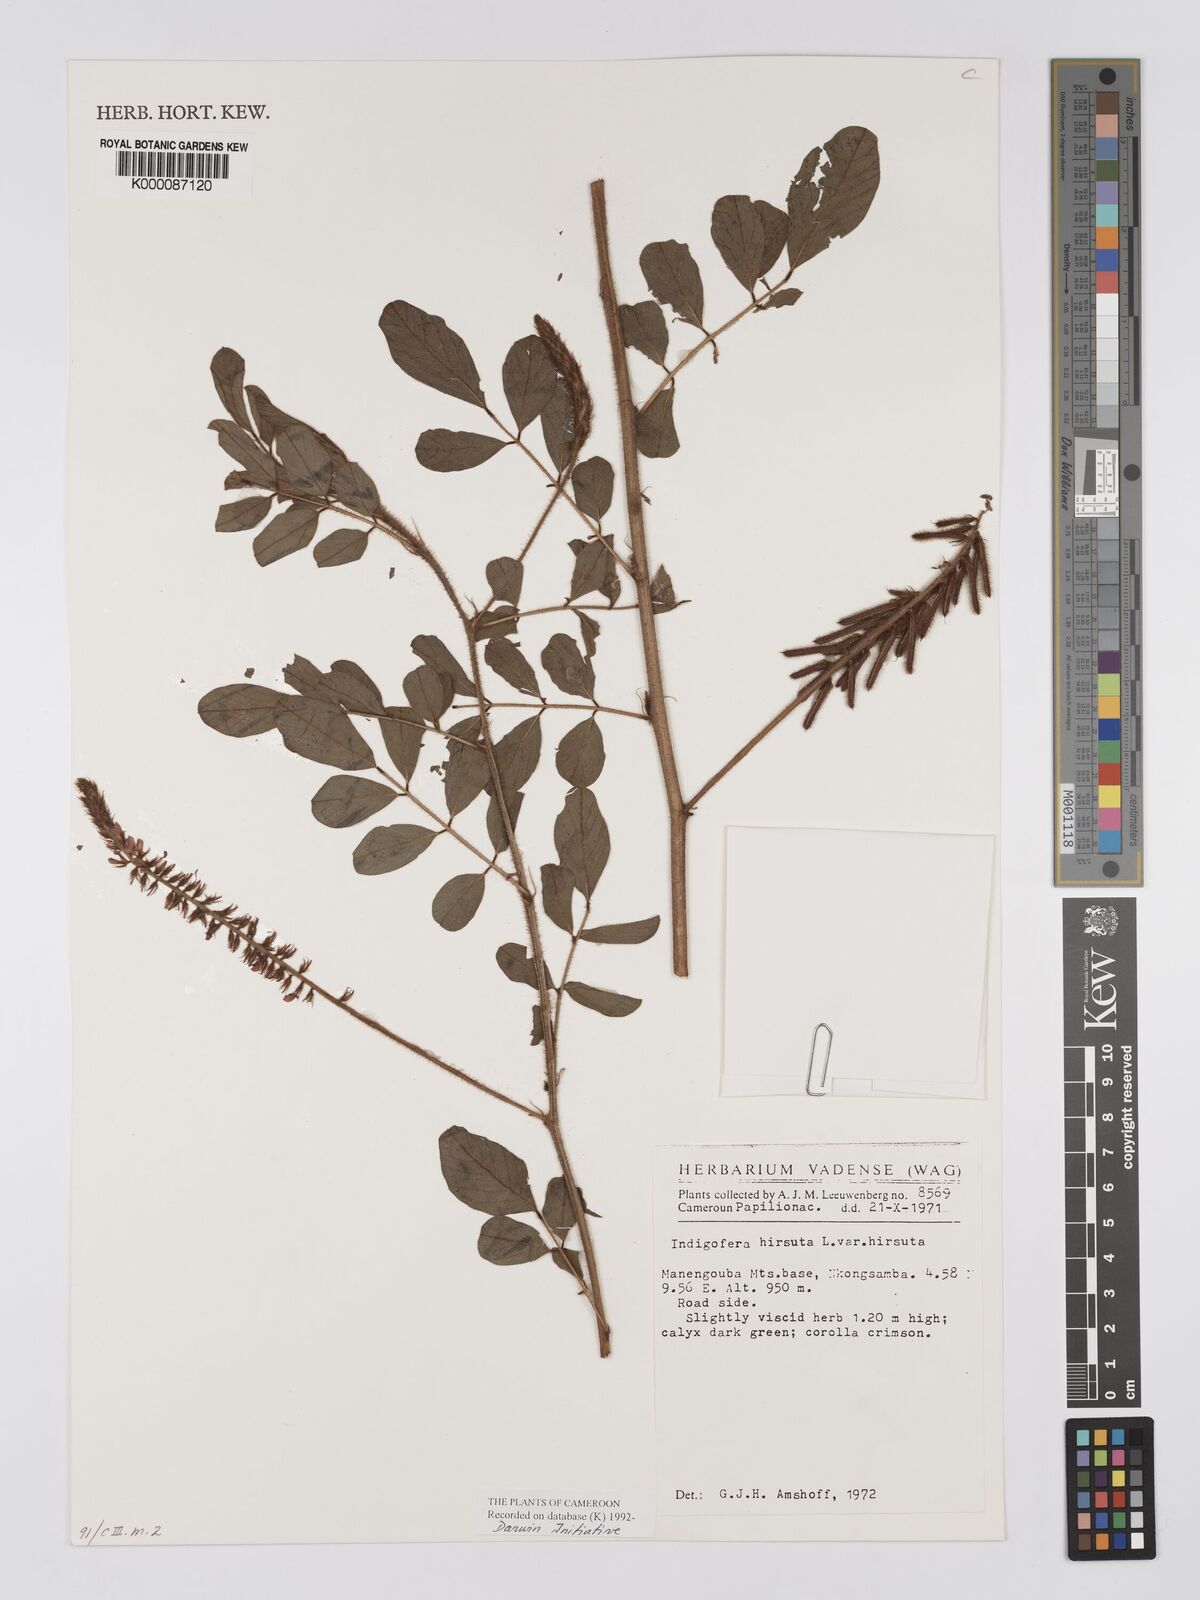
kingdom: Plantae
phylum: Tracheophyta
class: Magnoliopsida
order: Fabales
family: Fabaceae
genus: Indigofera
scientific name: Indigofera hirsuta
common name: Hairy indigo
